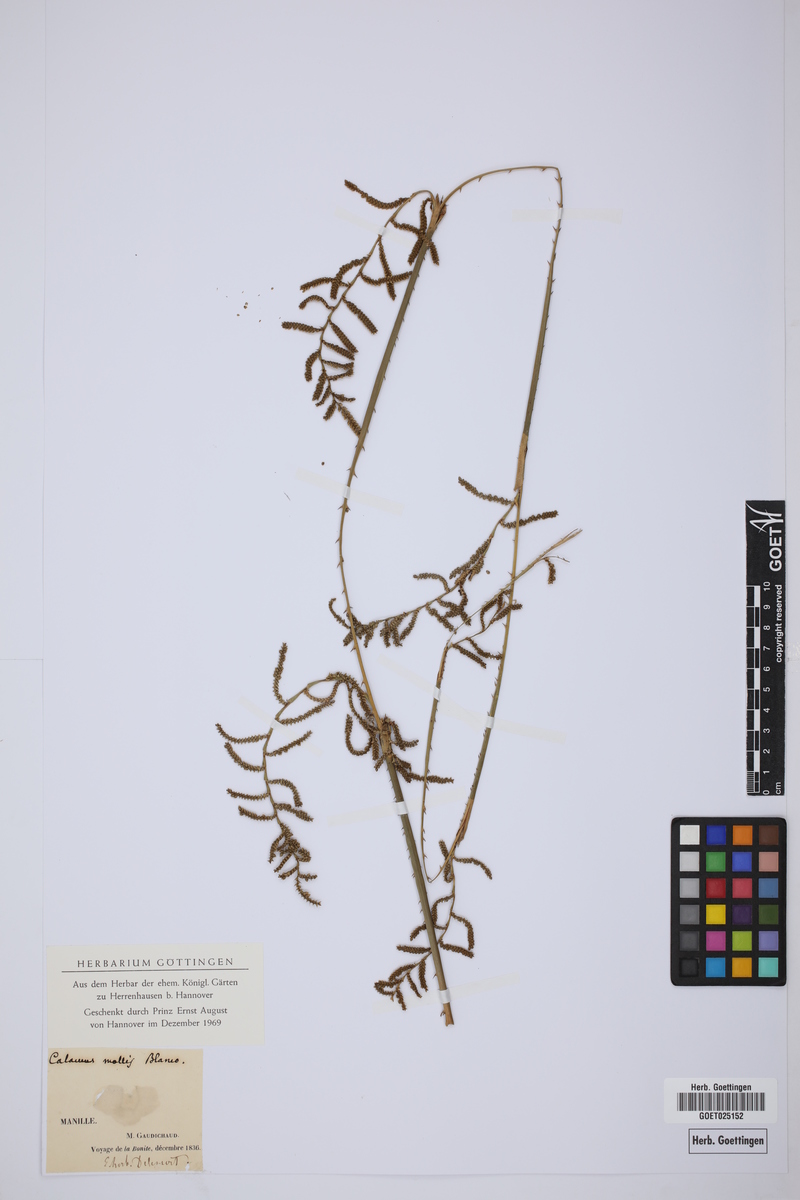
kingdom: Plantae
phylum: Tracheophyta
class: Liliopsida
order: Arecales
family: Arecaceae
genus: Calamus
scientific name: Calamus oblongus
